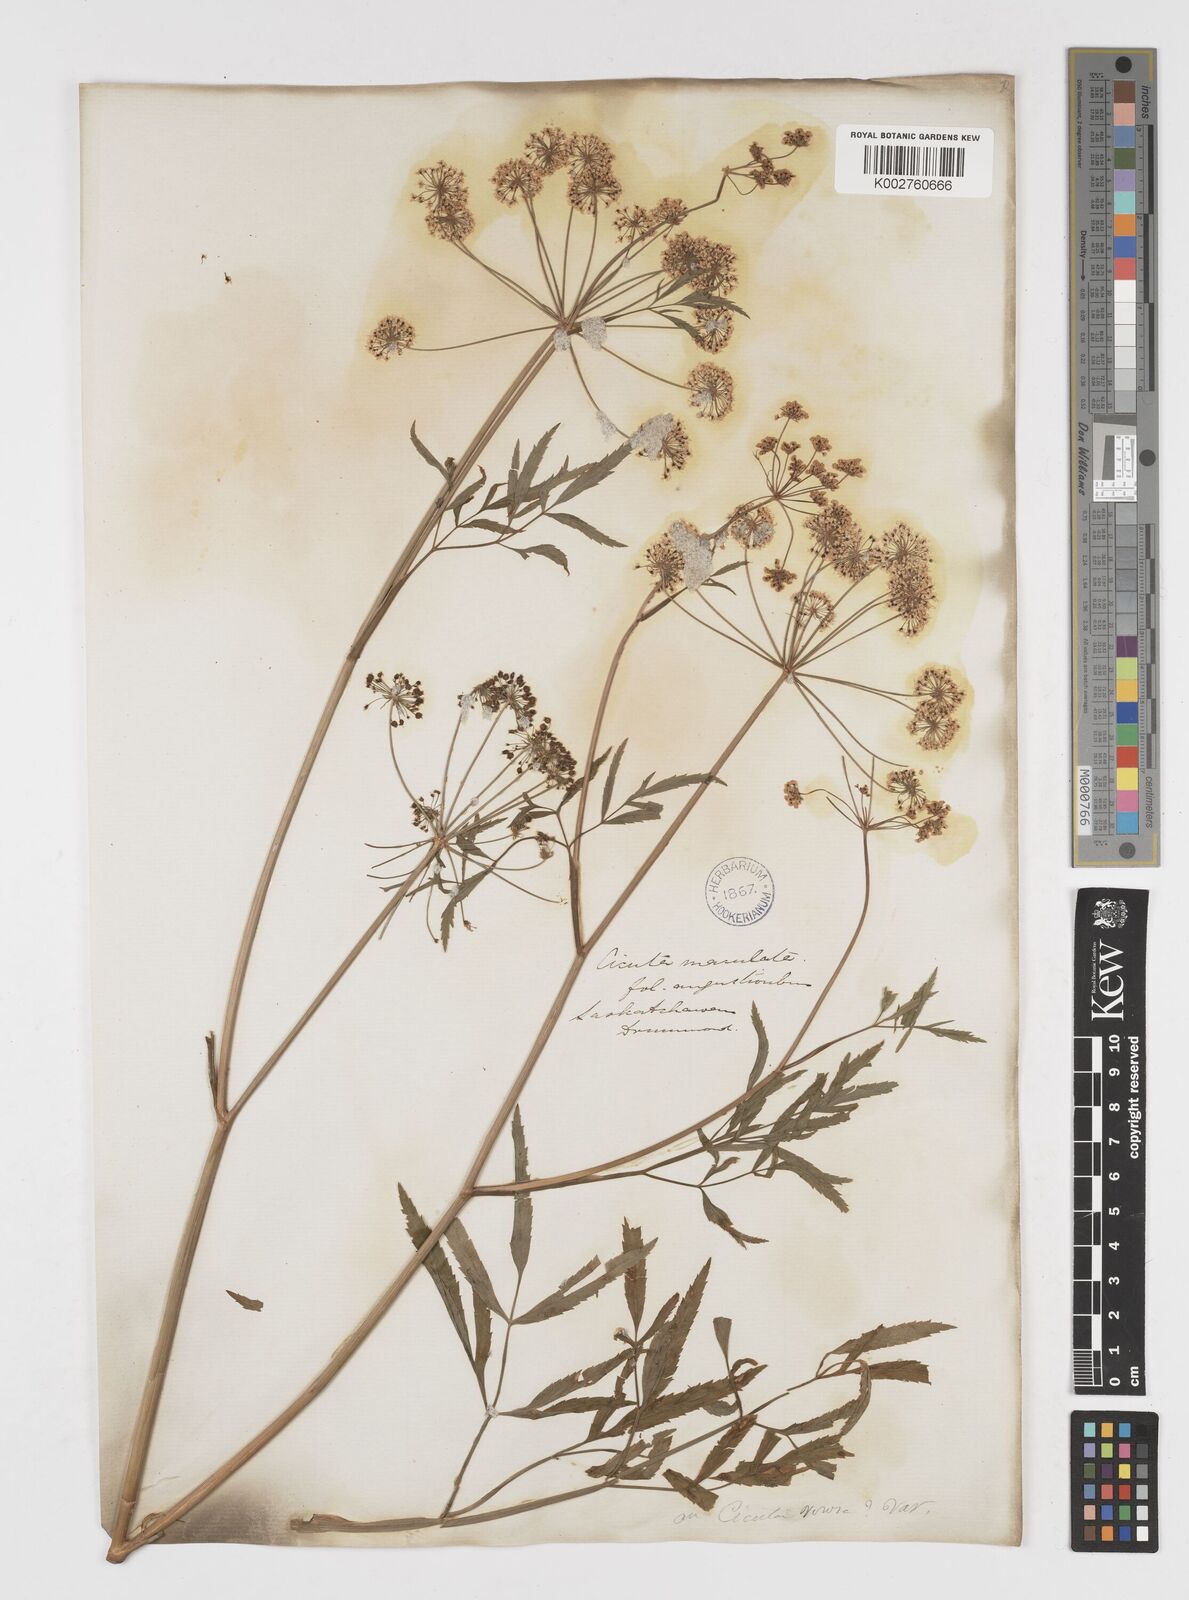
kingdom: Plantae
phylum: Tracheophyta
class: Magnoliopsida
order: Apiales
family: Apiaceae
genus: Cicuta
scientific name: Cicuta virosa
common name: Cowbane
